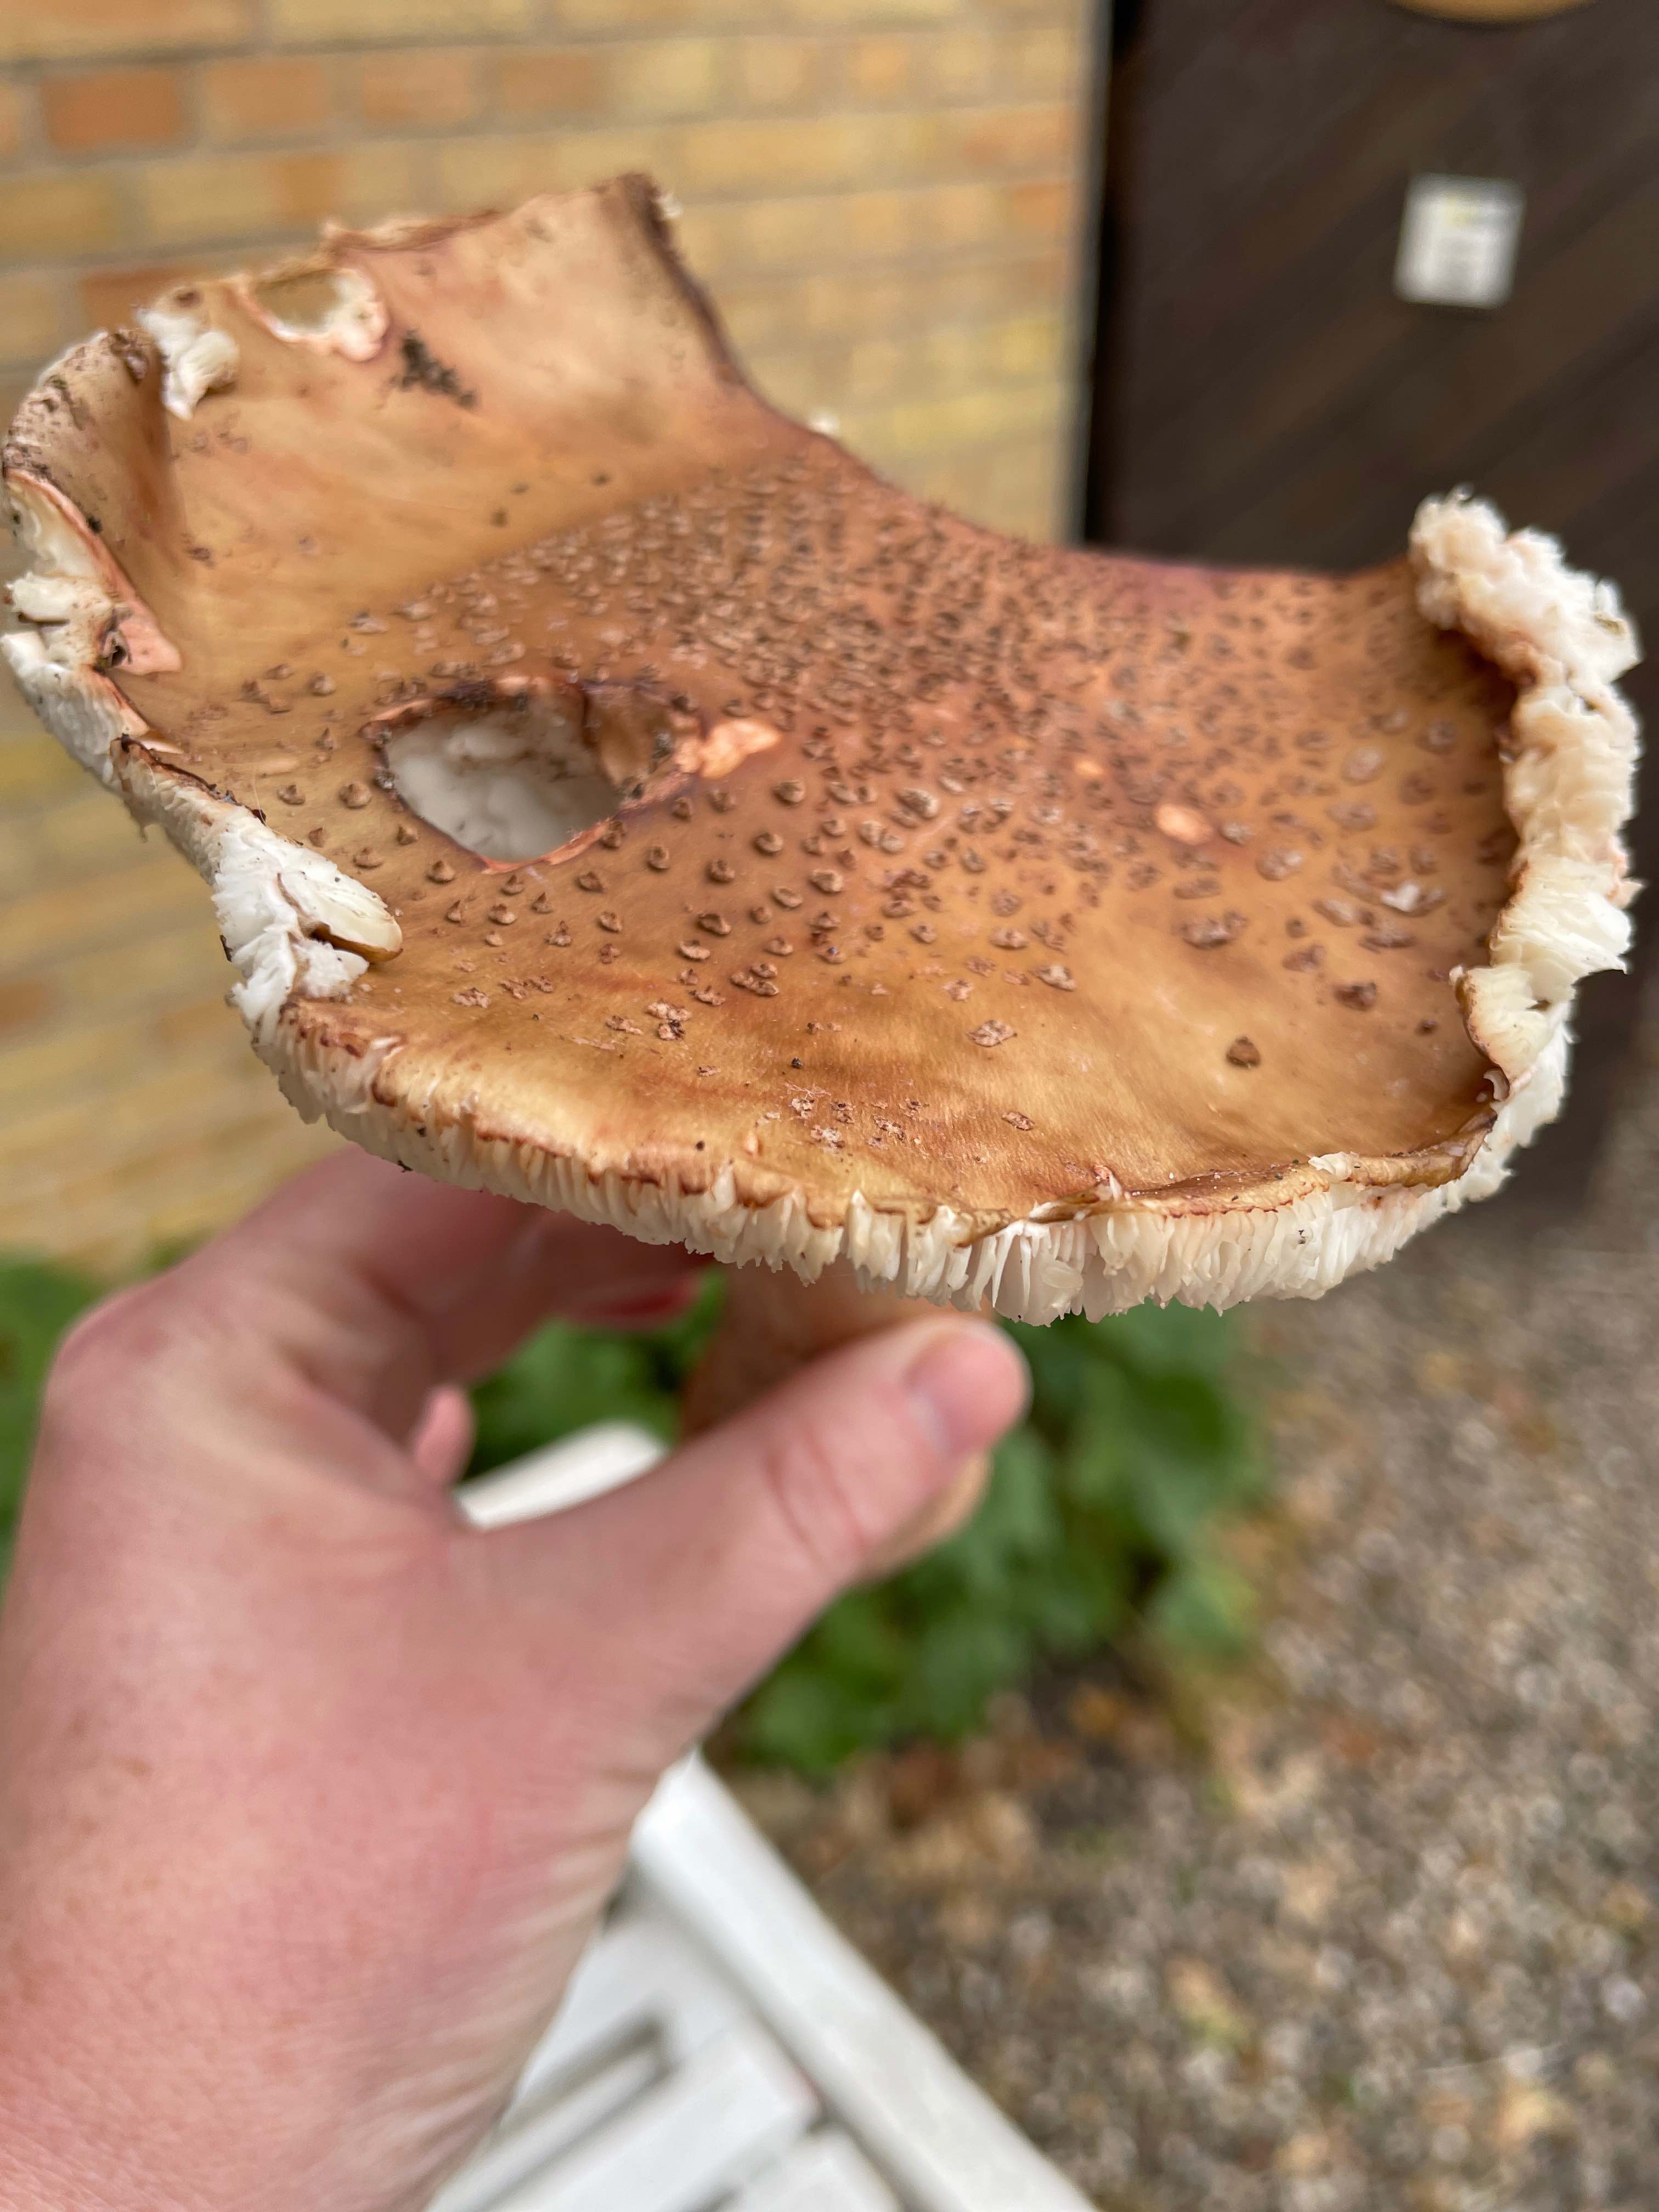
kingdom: Fungi
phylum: Basidiomycota
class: Agaricomycetes
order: Agaricales
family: Amanitaceae
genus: Amanita
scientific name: Amanita rubescens
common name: rødmende fluesvamp
